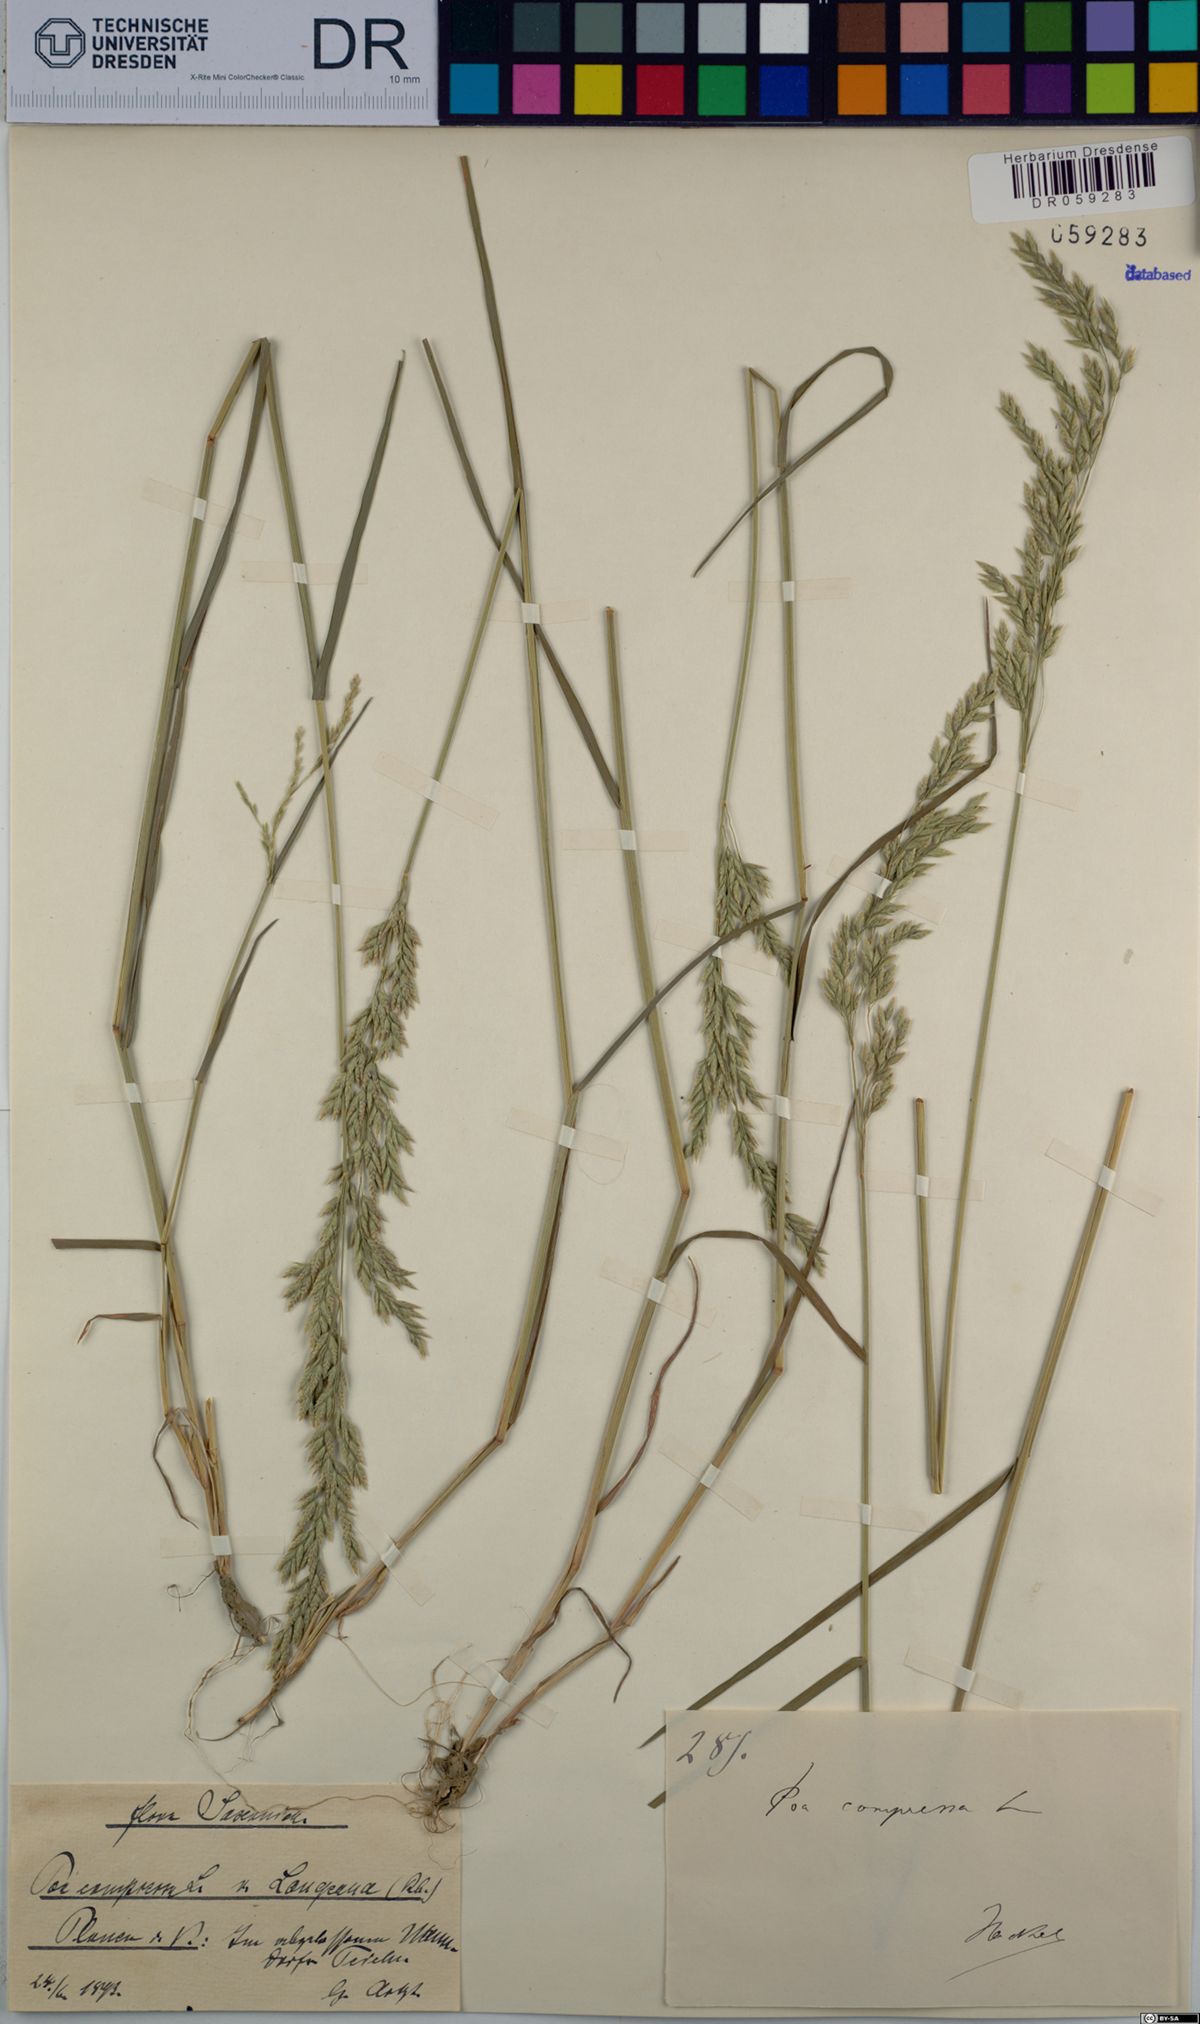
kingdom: Plantae
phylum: Tracheophyta
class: Liliopsida
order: Poales
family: Poaceae
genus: Poa
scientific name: Poa compressa
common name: Canada bluegrass
